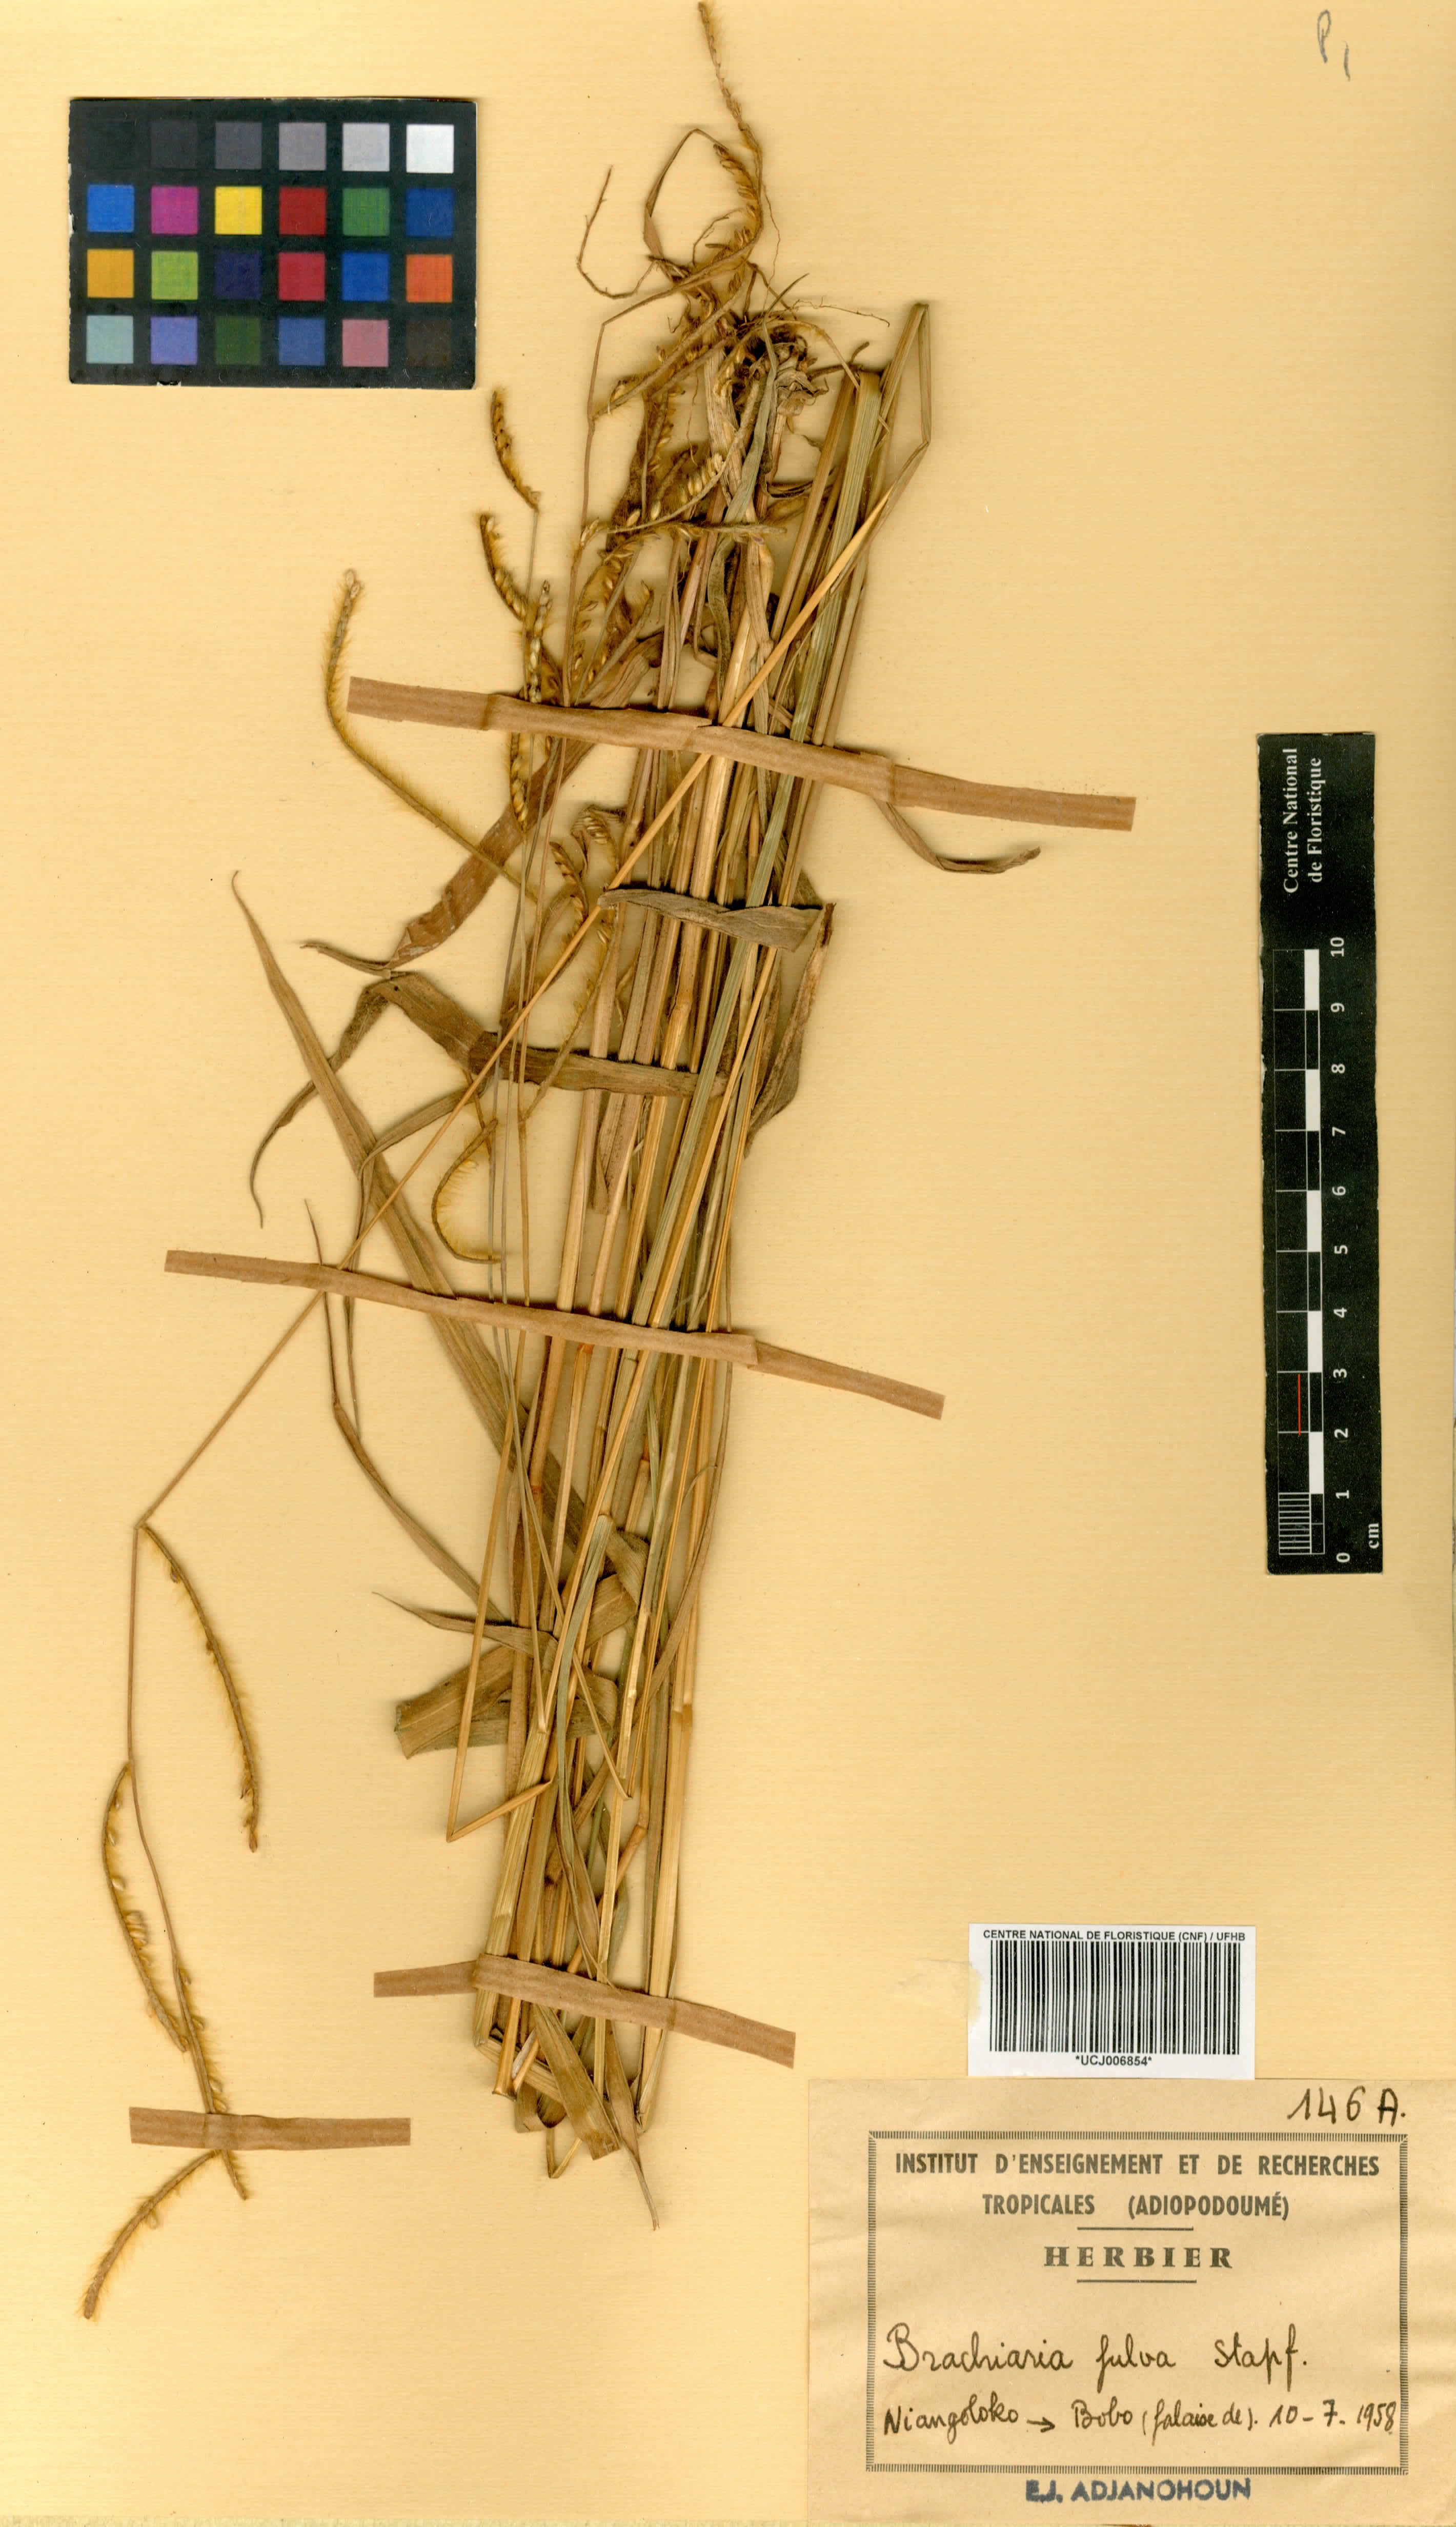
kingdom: Plantae
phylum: Tracheophyta
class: Liliopsida
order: Poales
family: Poaceae
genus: Urochloa
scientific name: Urochloa jubata
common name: Buffalograss
